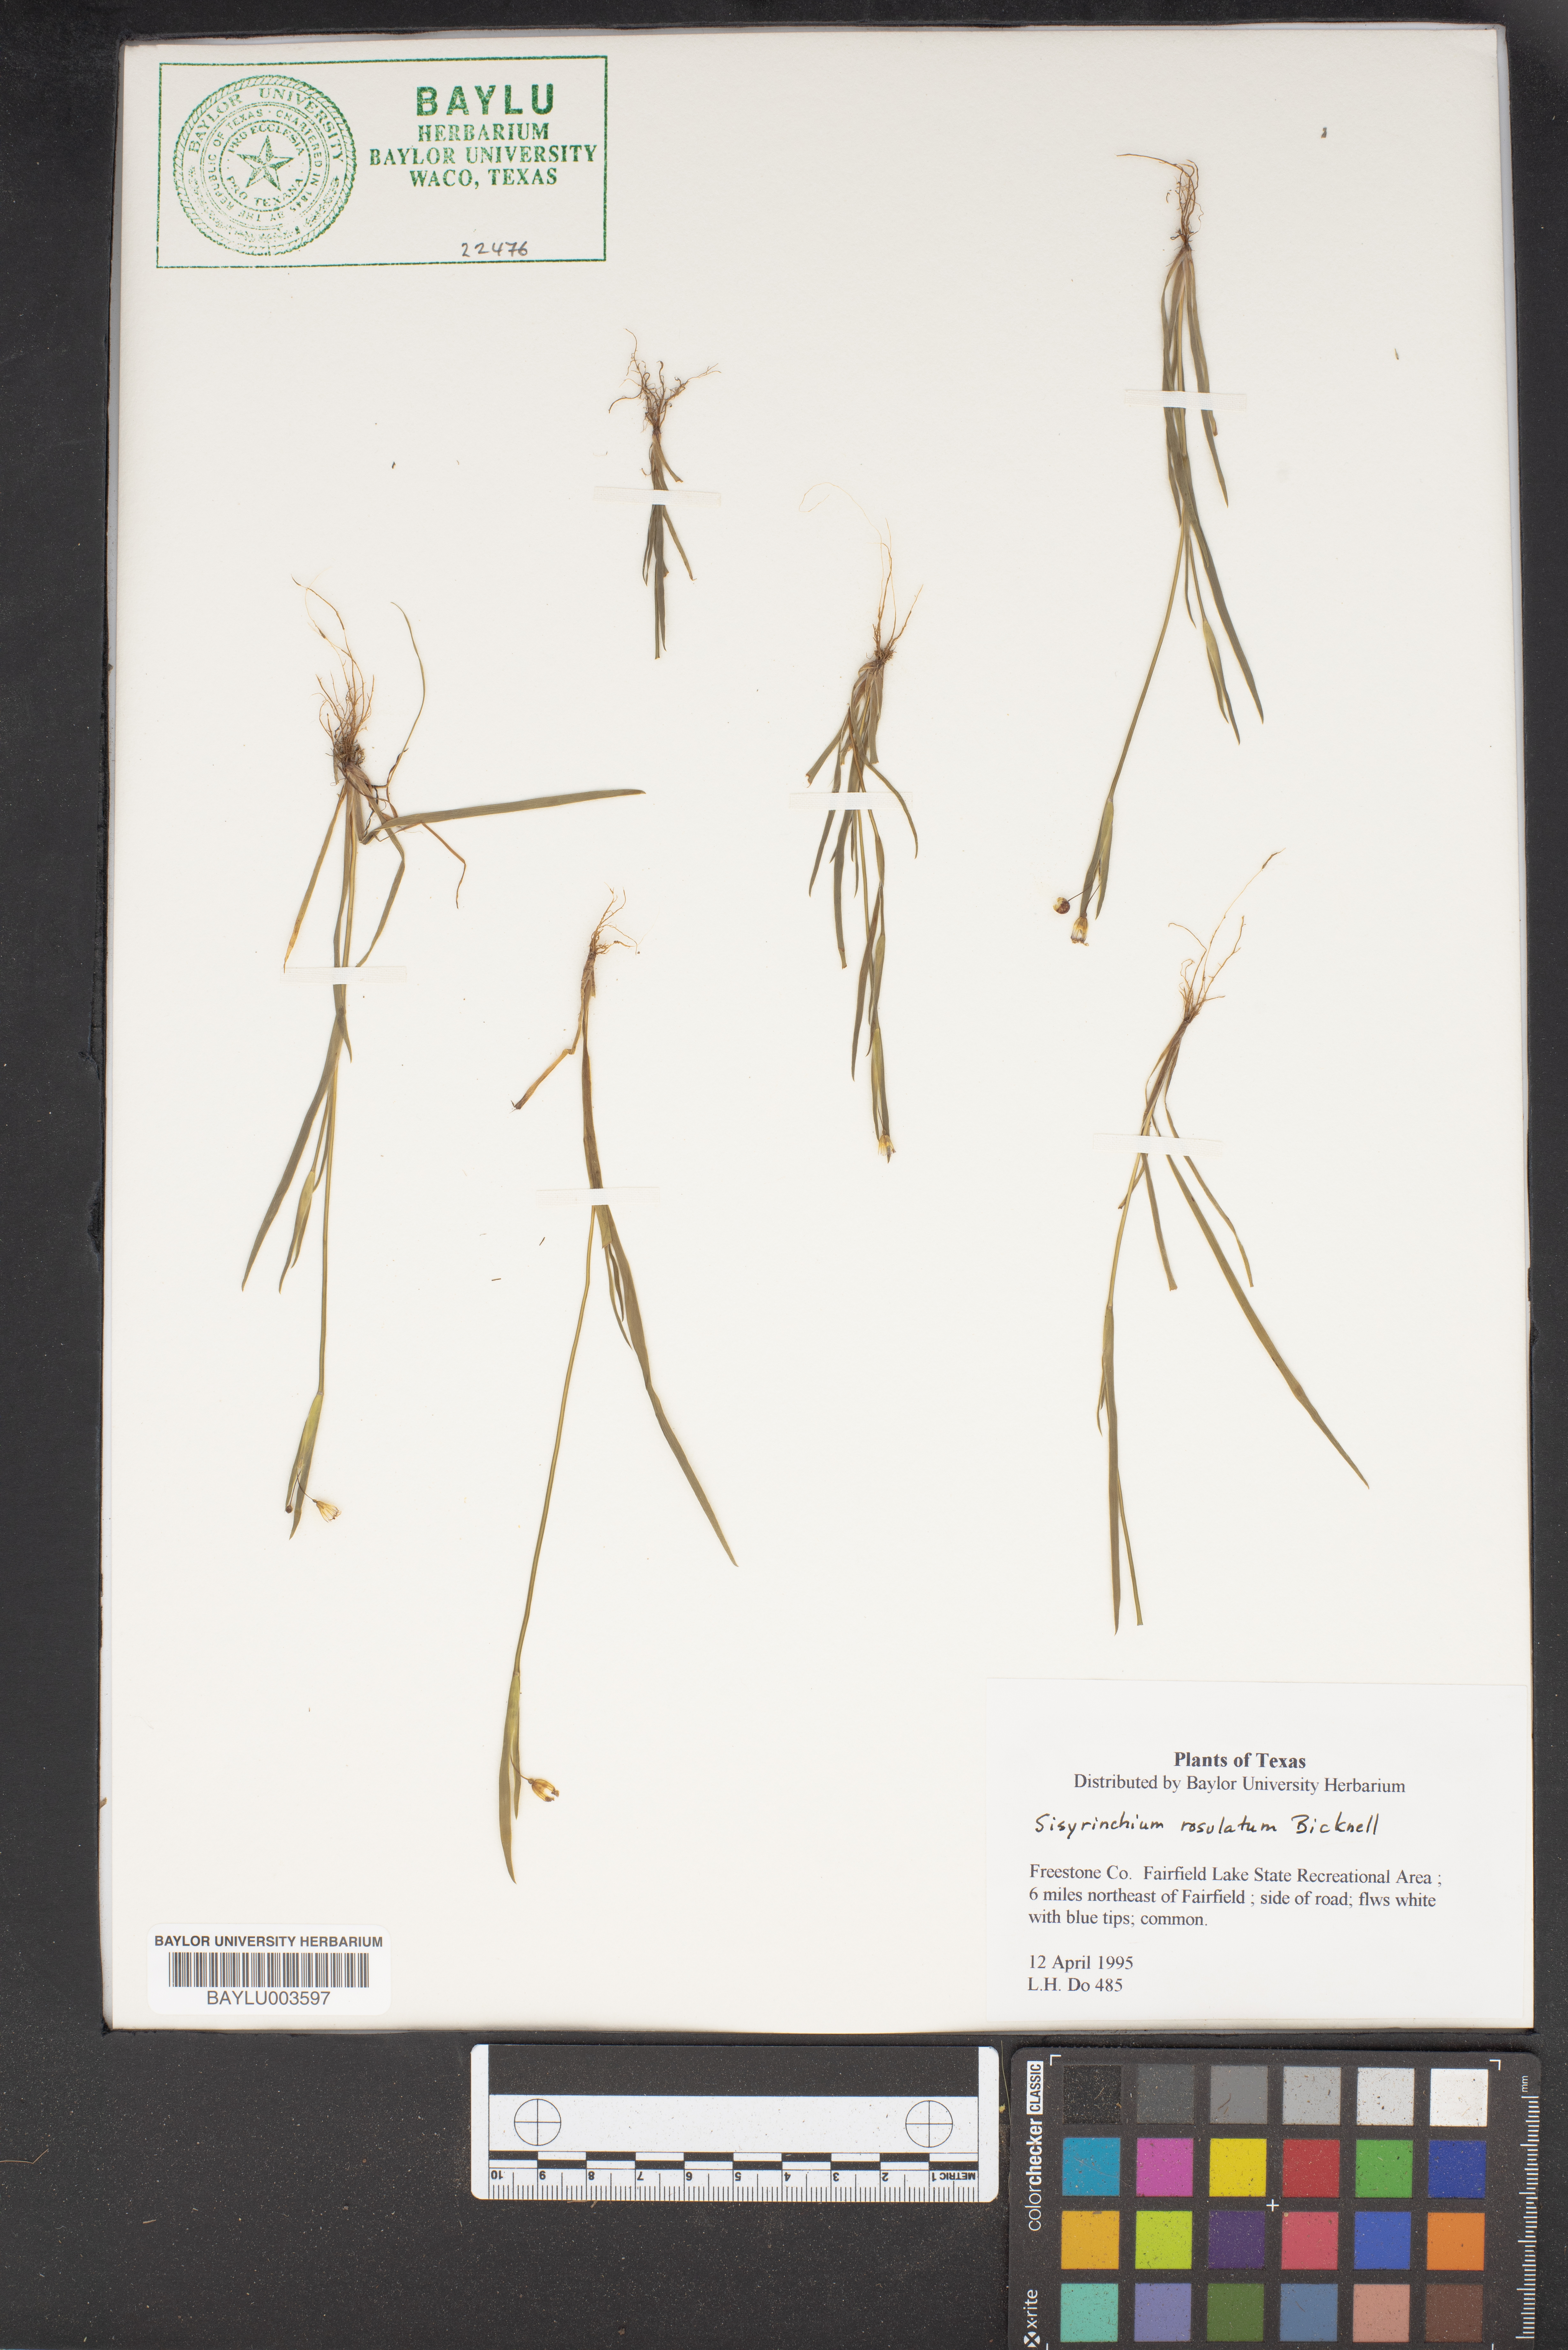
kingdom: Plantae
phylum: Tracheophyta
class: Liliopsida
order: Asparagales
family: Iridaceae
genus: Sisyrinchium
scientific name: Sisyrinchium rosulatum
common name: Annual blue-eyed grass
